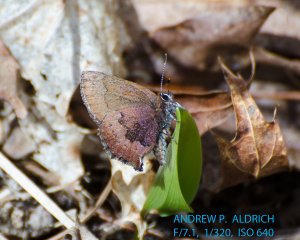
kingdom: Animalia
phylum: Arthropoda
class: Insecta
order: Lepidoptera
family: Lycaenidae
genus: Incisalia
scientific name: Incisalia irioides
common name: Brown Elfin
